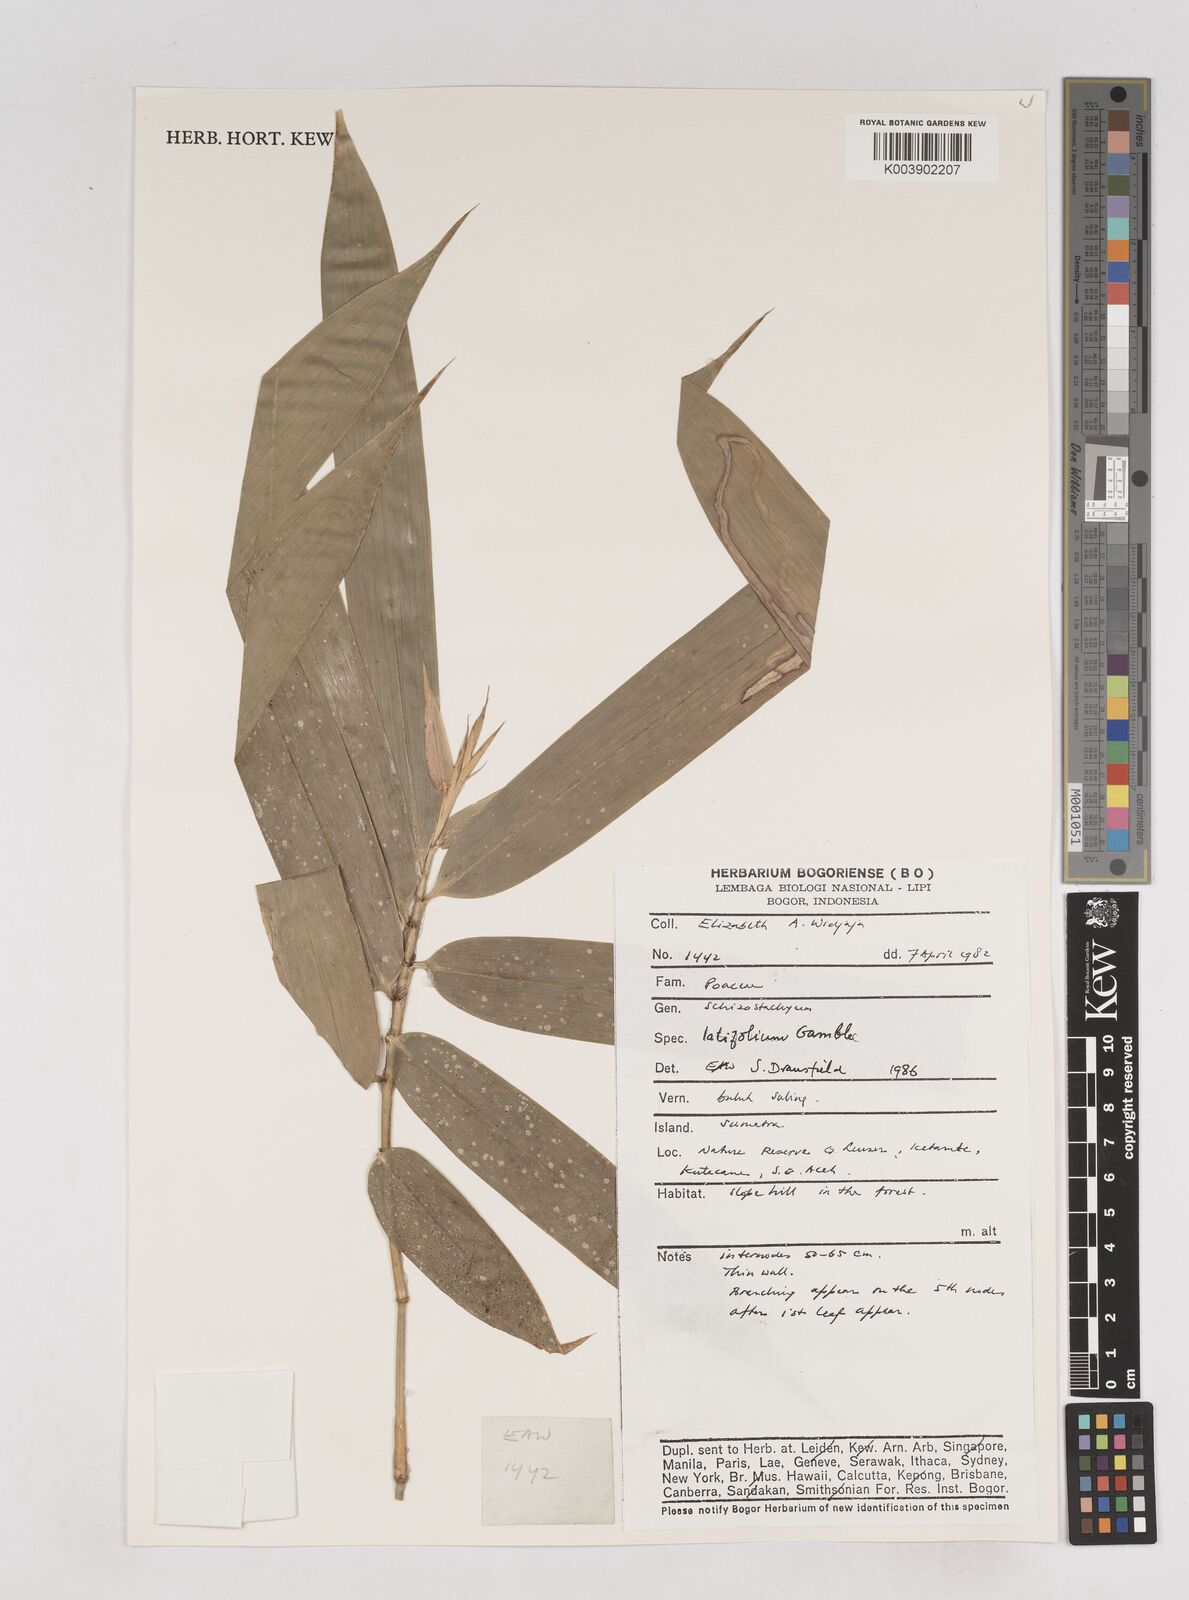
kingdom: Plantae
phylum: Tracheophyta
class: Liliopsida
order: Poales
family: Poaceae
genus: Schizostachyum
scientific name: Schizostachyum latifolium
